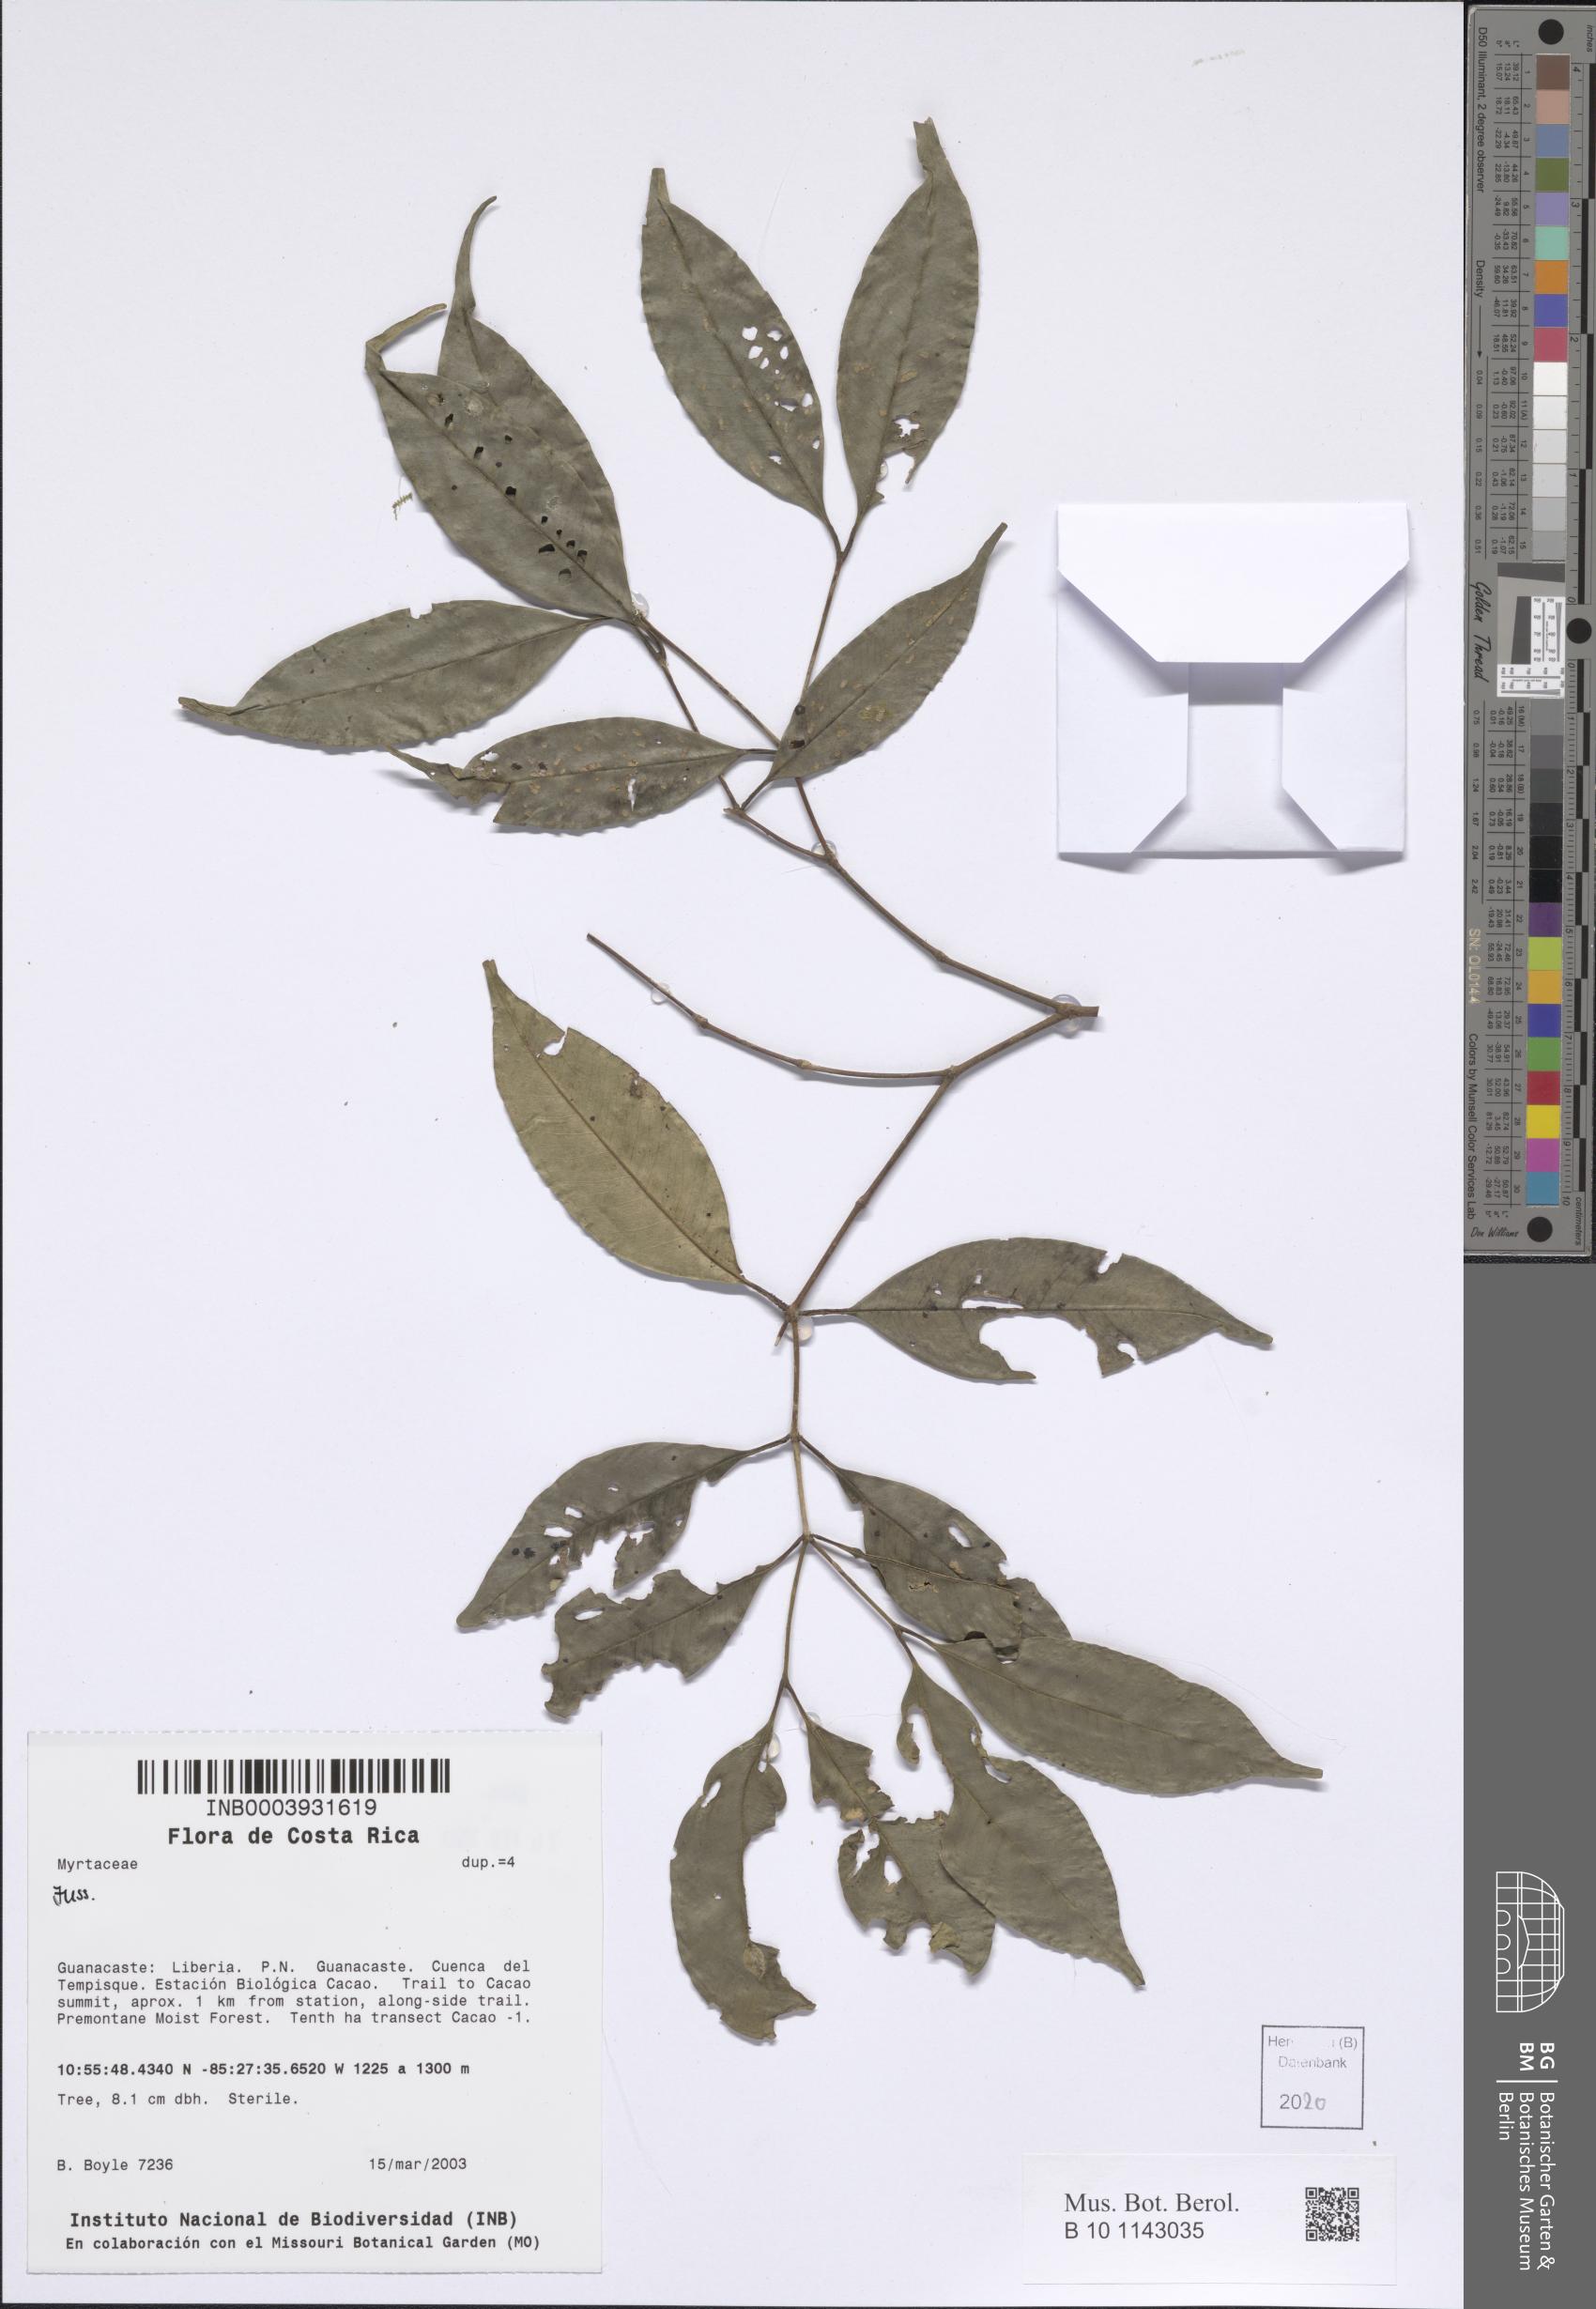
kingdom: Plantae
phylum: Tracheophyta
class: Magnoliopsida
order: Myrtales
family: Myrtaceae
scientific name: Myrtaceae
